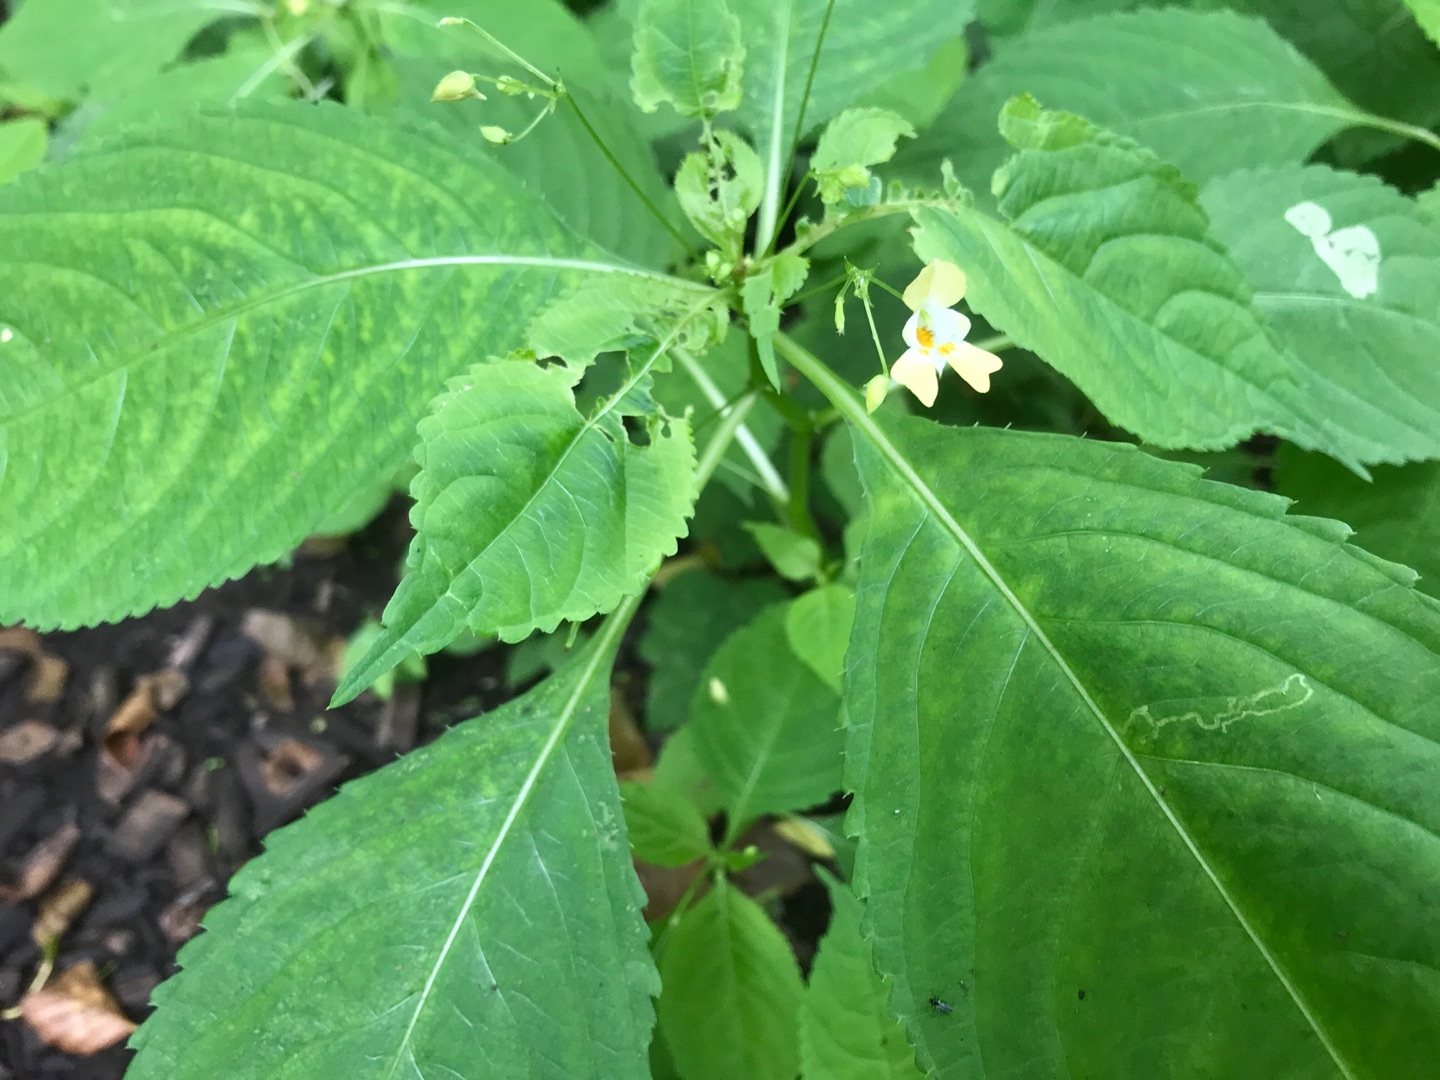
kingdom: Plantae
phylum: Tracheophyta
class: Magnoliopsida
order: Ericales
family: Balsaminaceae
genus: Impatiens
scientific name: Impatiens parviflora
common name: Småblomstret balsamin
